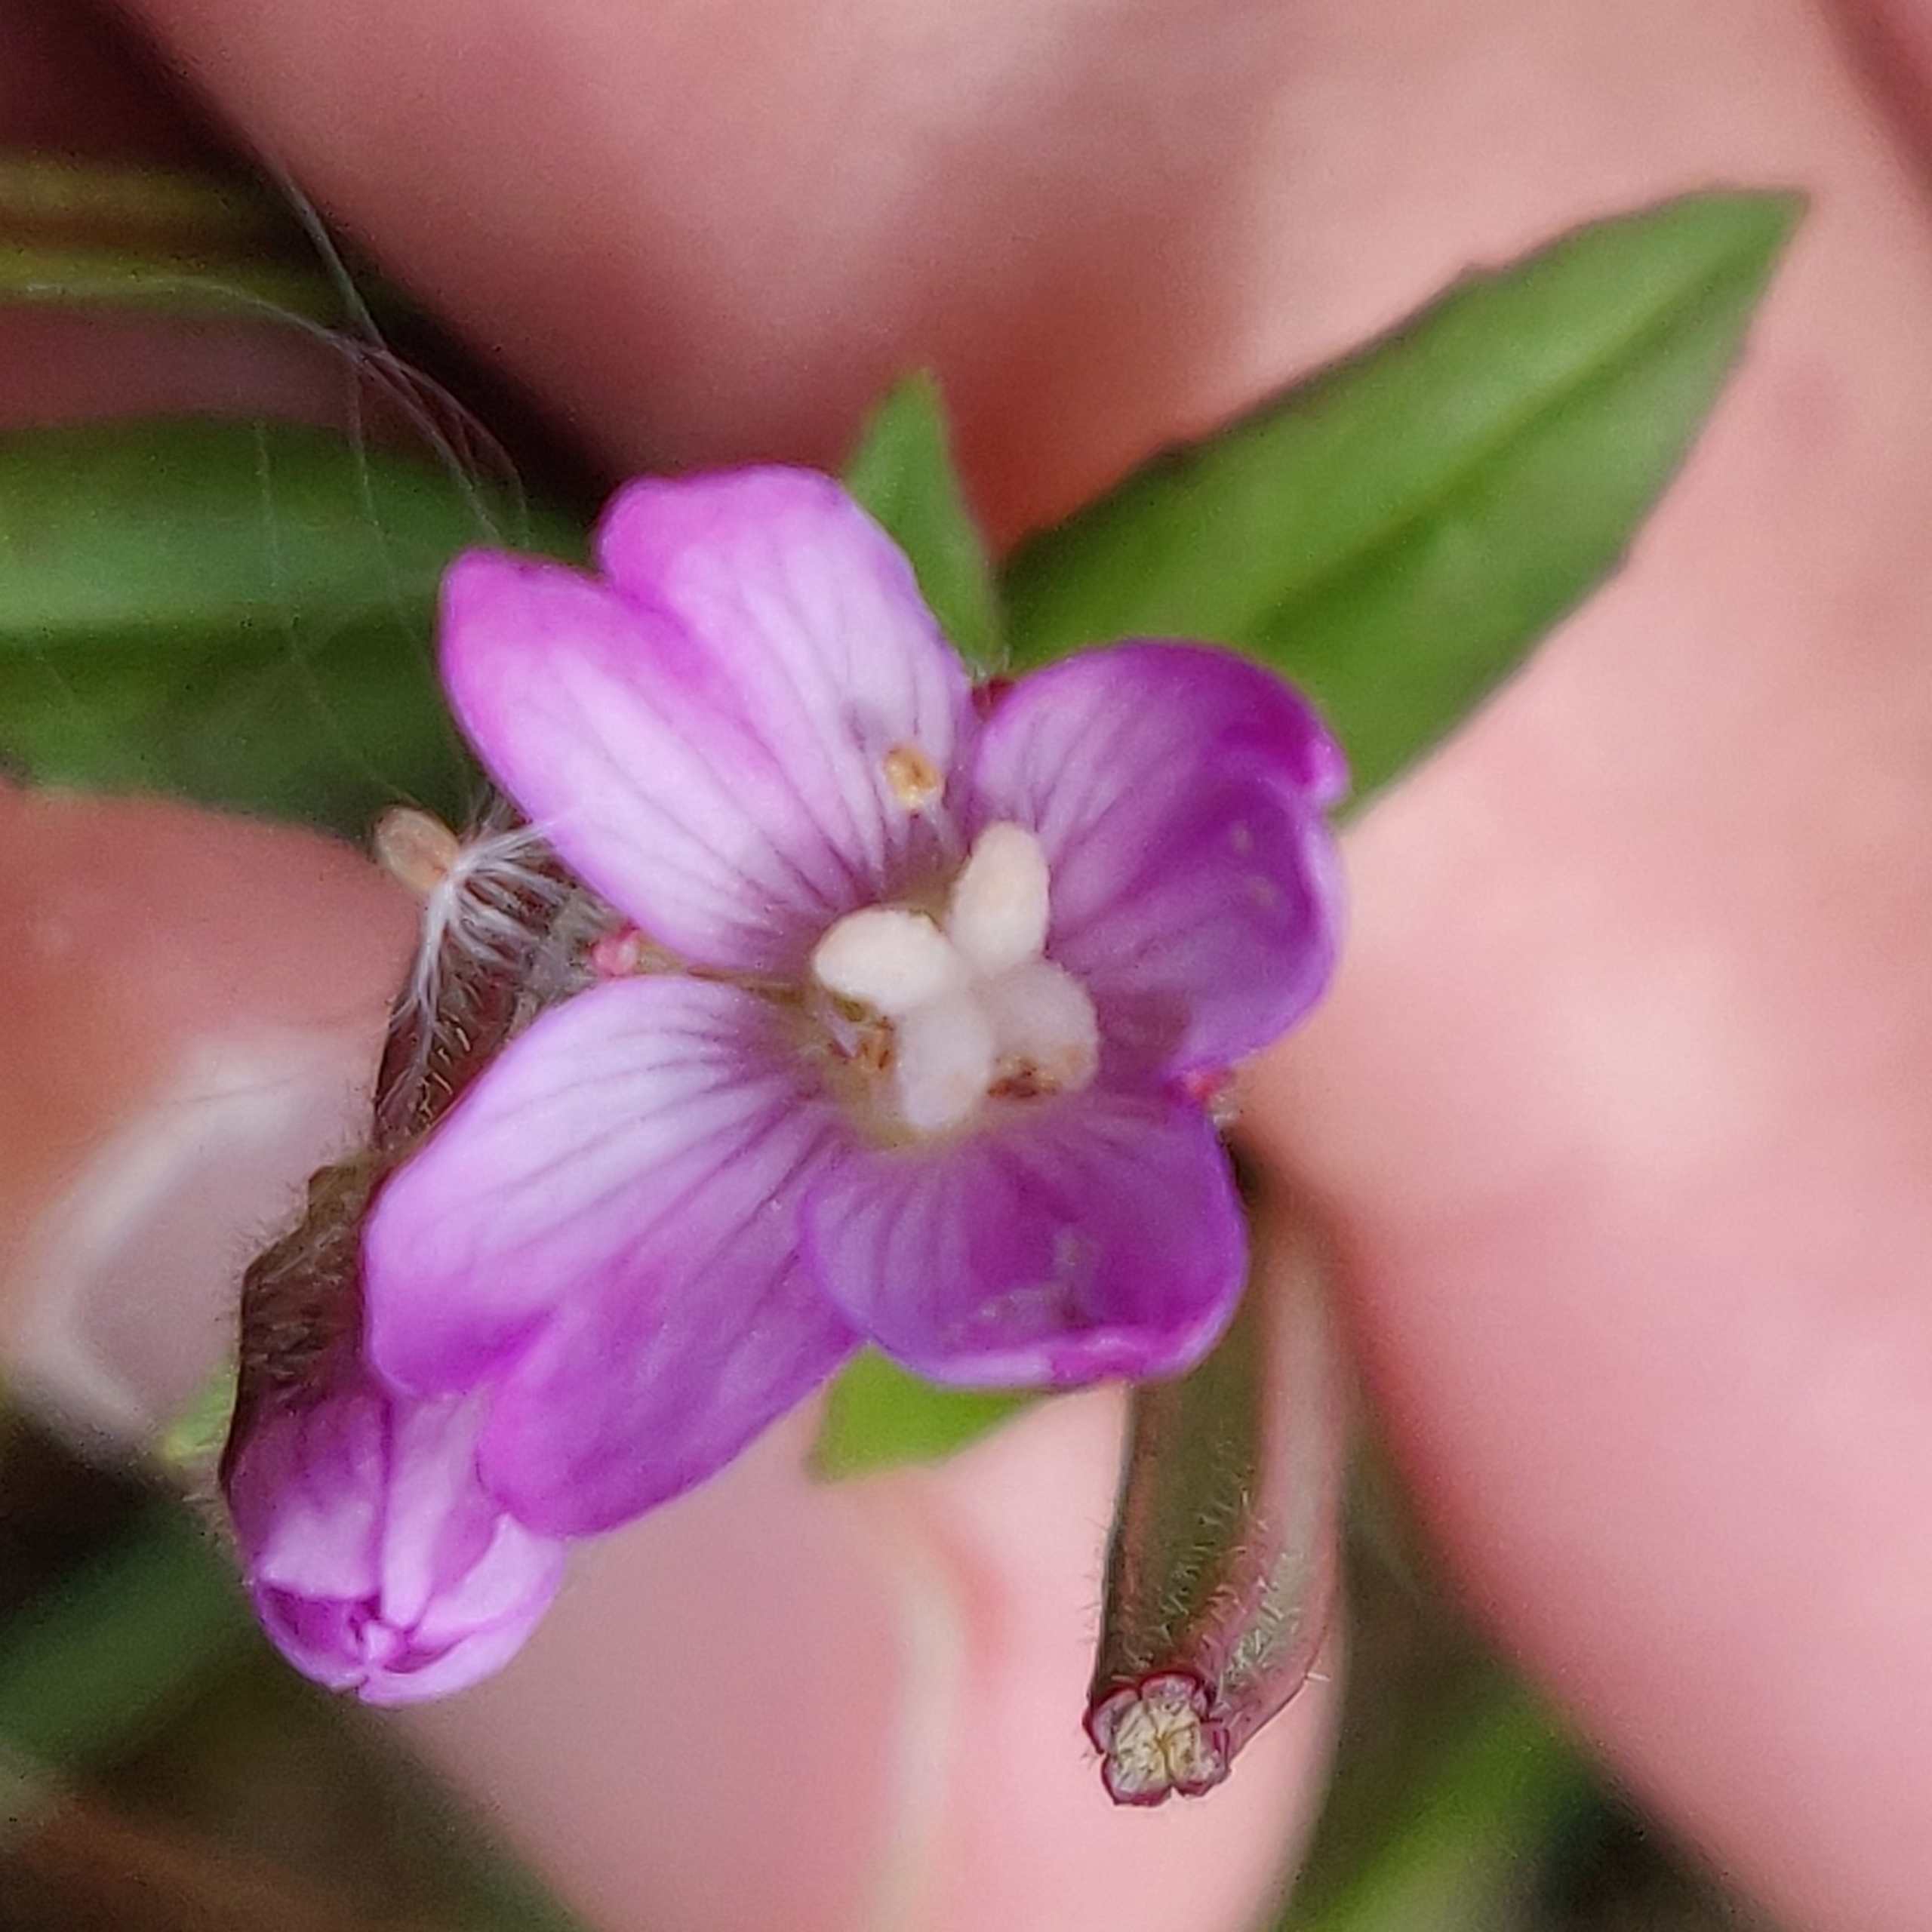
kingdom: Plantae
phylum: Tracheophyta
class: Magnoliopsida
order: Myrtales
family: Onagraceae
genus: Epilobium
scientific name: Epilobium parviflorum
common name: Dunet dueurt
